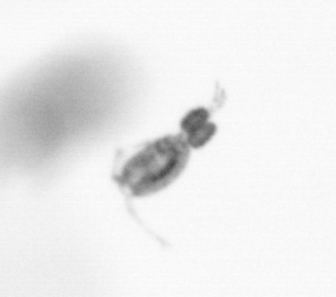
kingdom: Animalia
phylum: Arthropoda
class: Copepoda
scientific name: Copepoda
